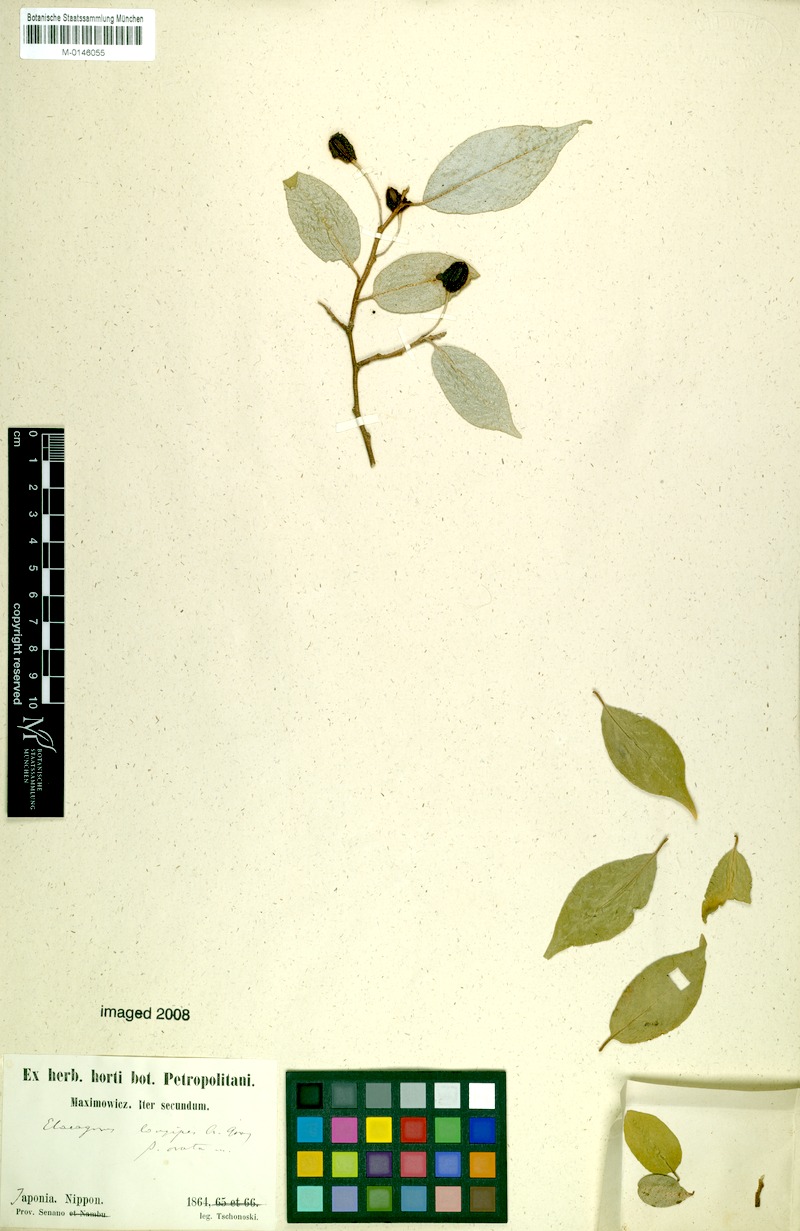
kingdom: Plantae
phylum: Tracheophyta
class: Magnoliopsida
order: Rosales
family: Elaeagnaceae
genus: Elaeagnus
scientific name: Elaeagnus montana
